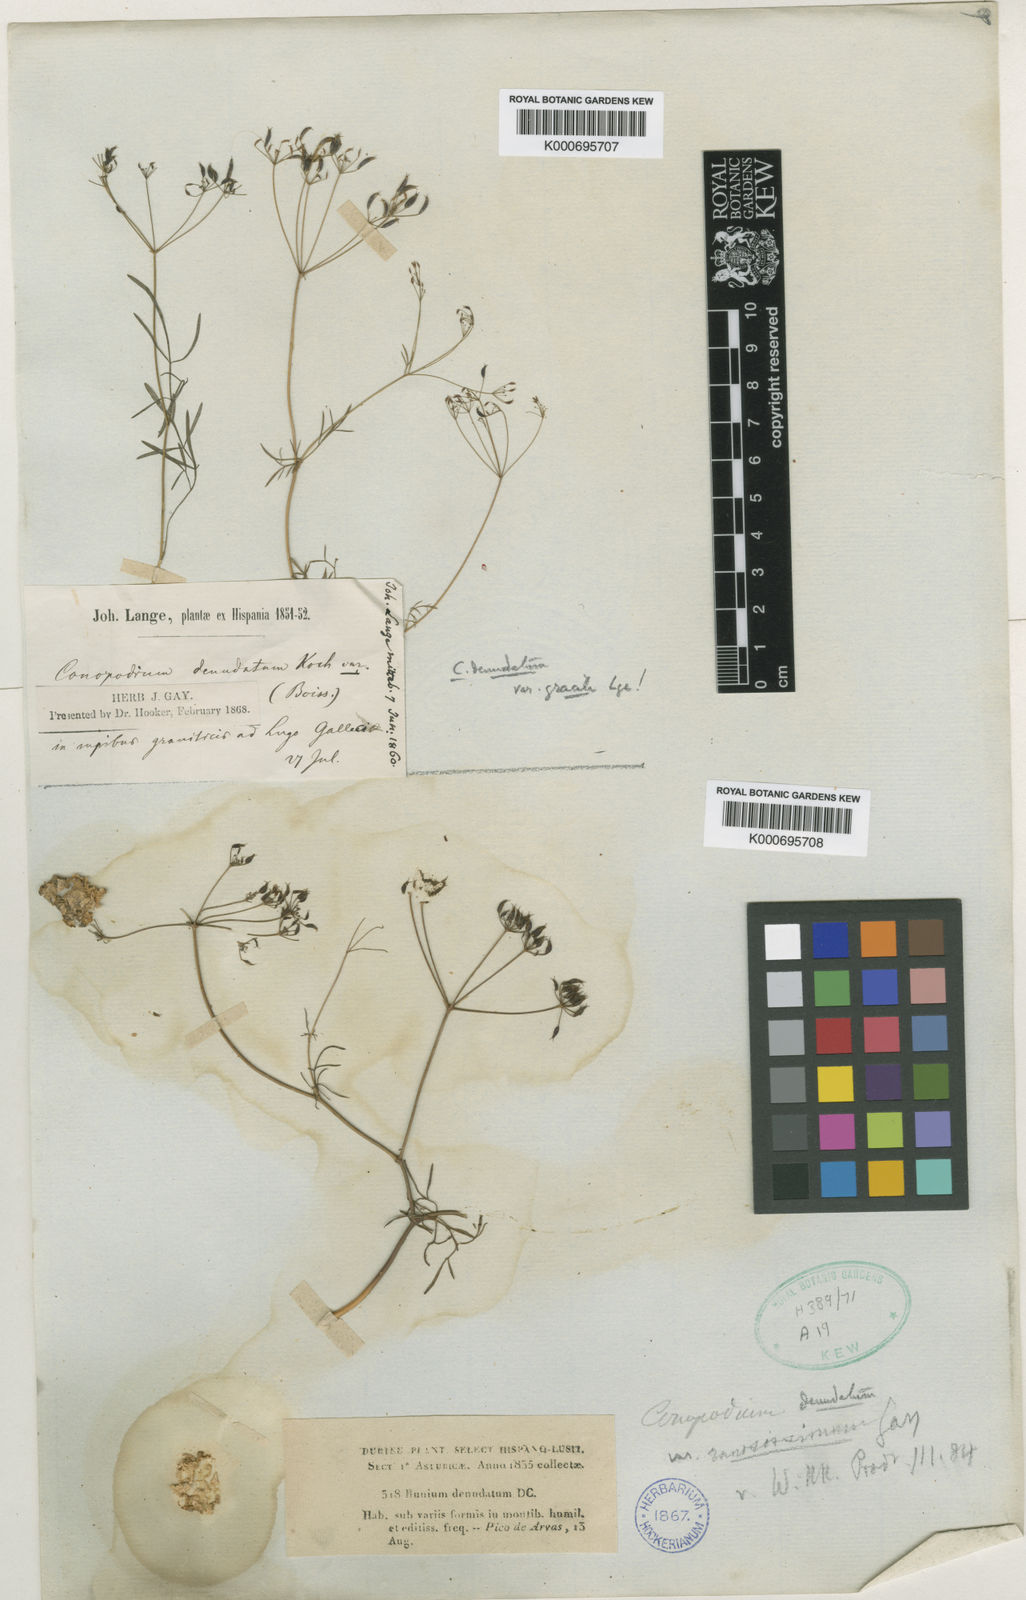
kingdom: Plantae
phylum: Tracheophyta
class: Magnoliopsida
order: Apiales
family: Apiaceae
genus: Conopodium
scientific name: Conopodium majus
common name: Pignut
